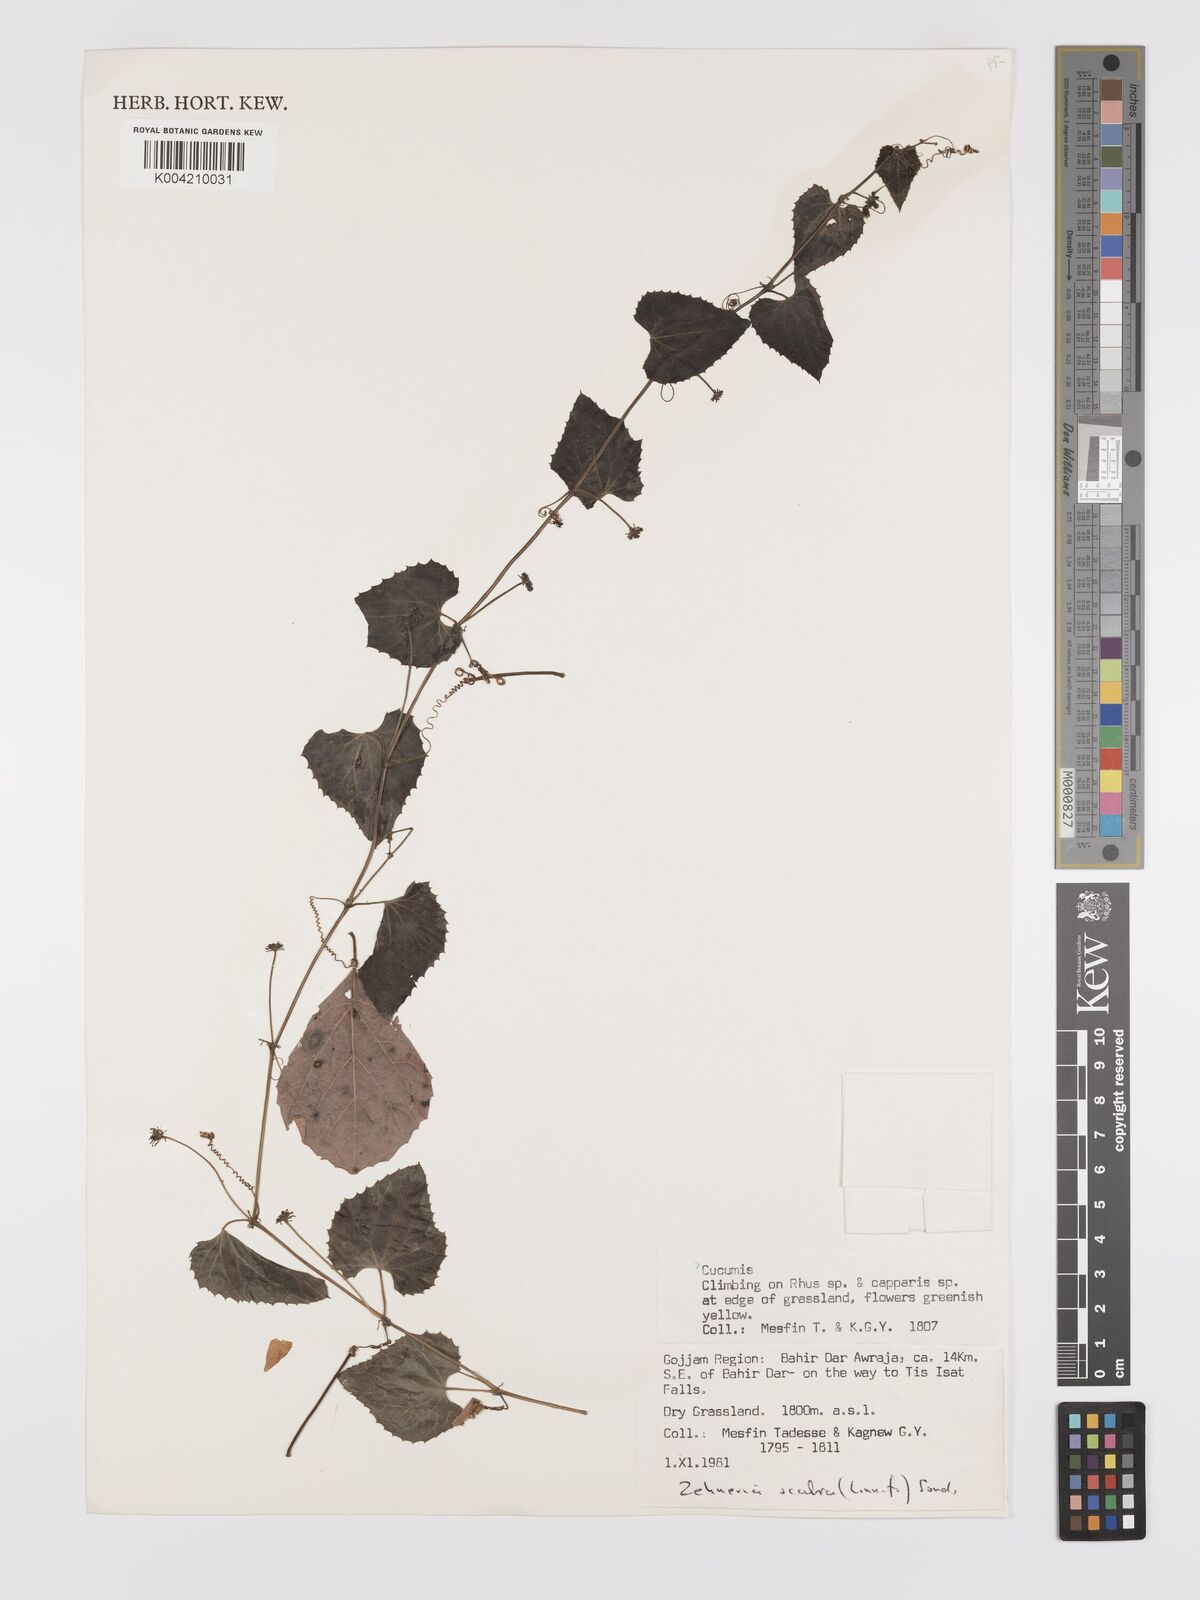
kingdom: Plantae
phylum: Tracheophyta
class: Magnoliopsida
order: Cucurbitales
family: Cucurbitaceae
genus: Zehneria
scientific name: Zehneria scabra
